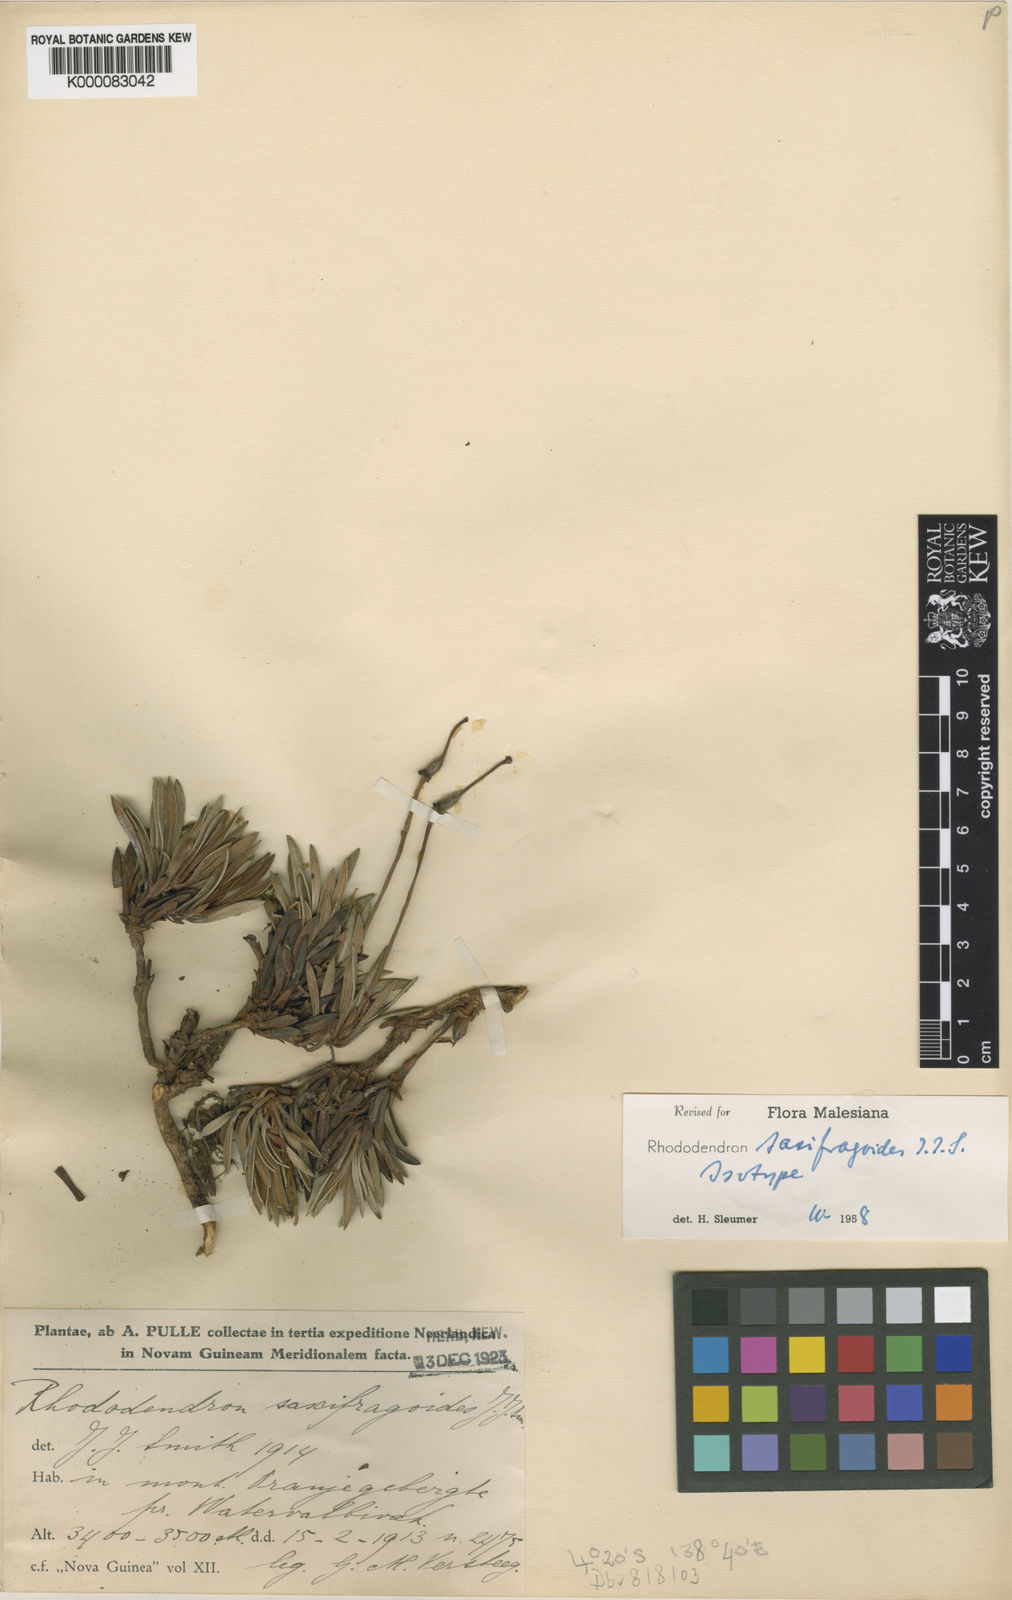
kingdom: Plantae
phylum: Tracheophyta
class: Magnoliopsida
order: Ericales
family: Ericaceae
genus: Rhododendron
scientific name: Rhododendron saxifragoides
